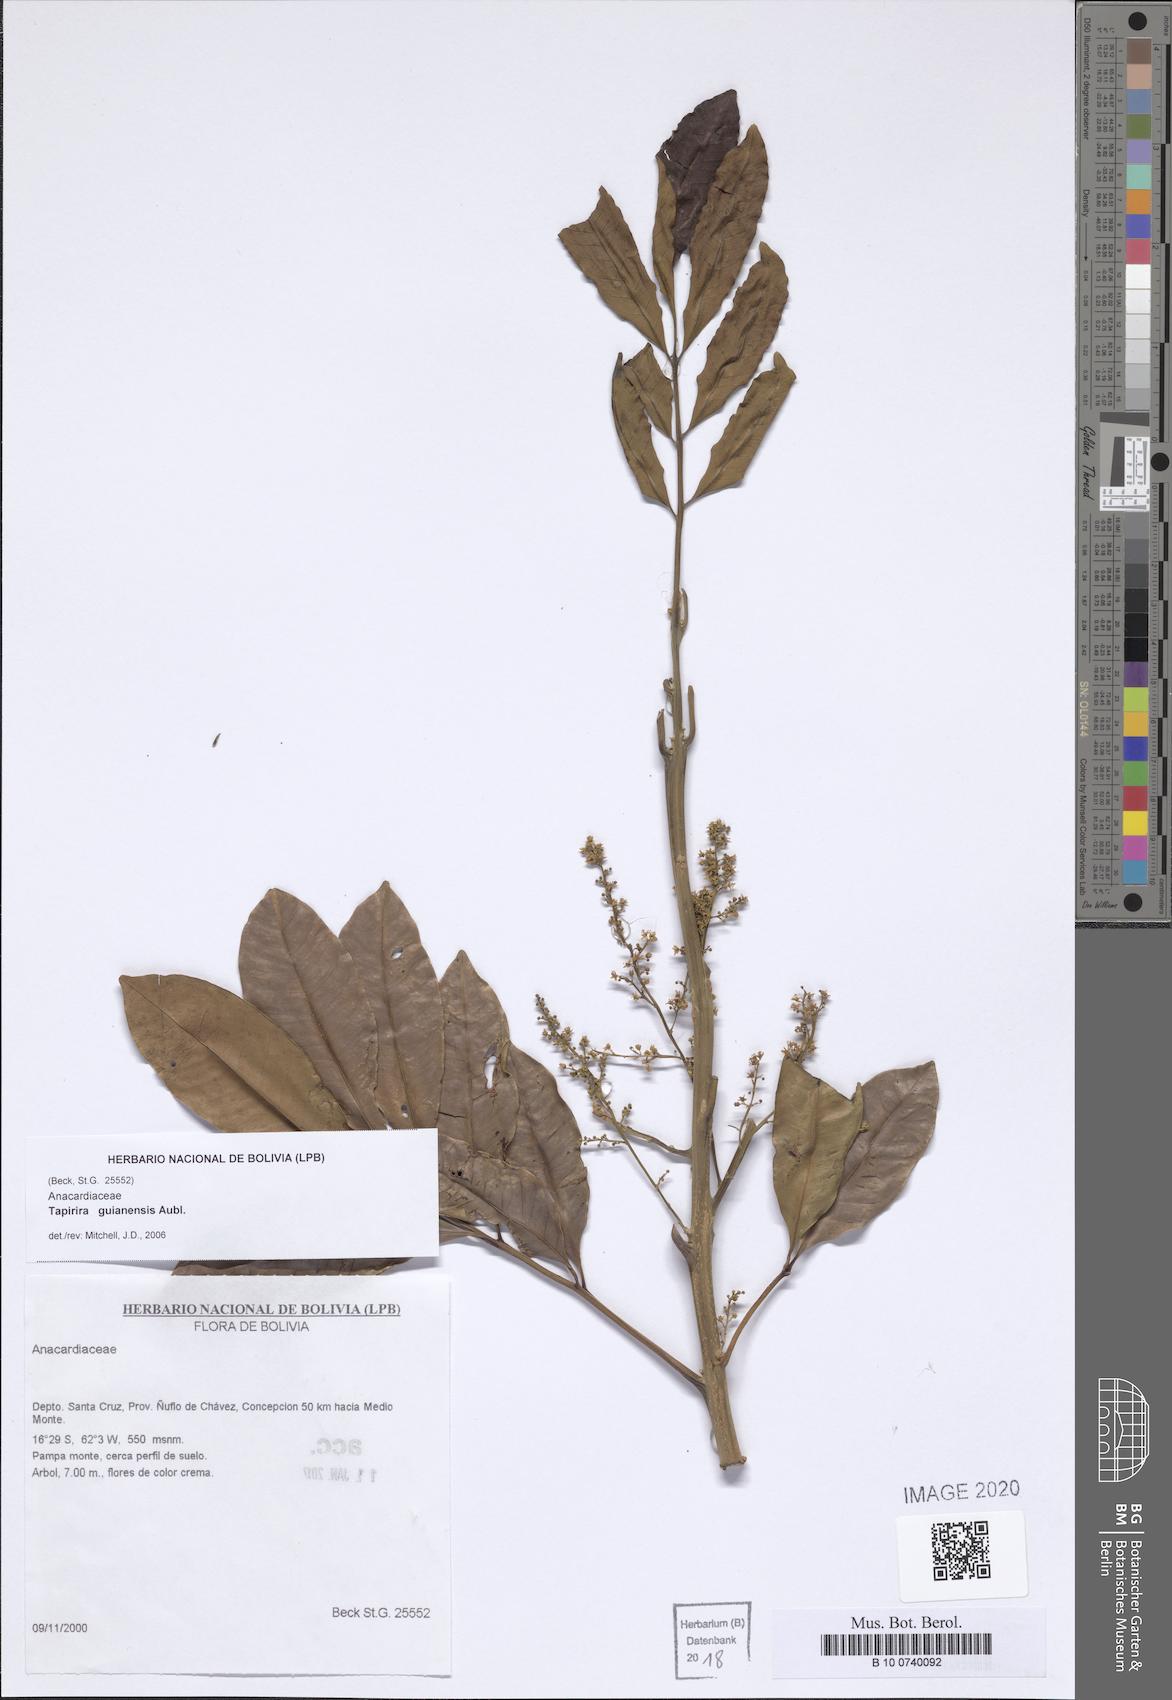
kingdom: Plantae
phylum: Tracheophyta
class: Magnoliopsida
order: Sapindales
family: Anacardiaceae
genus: Tapirira
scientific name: Tapirira guianensis
